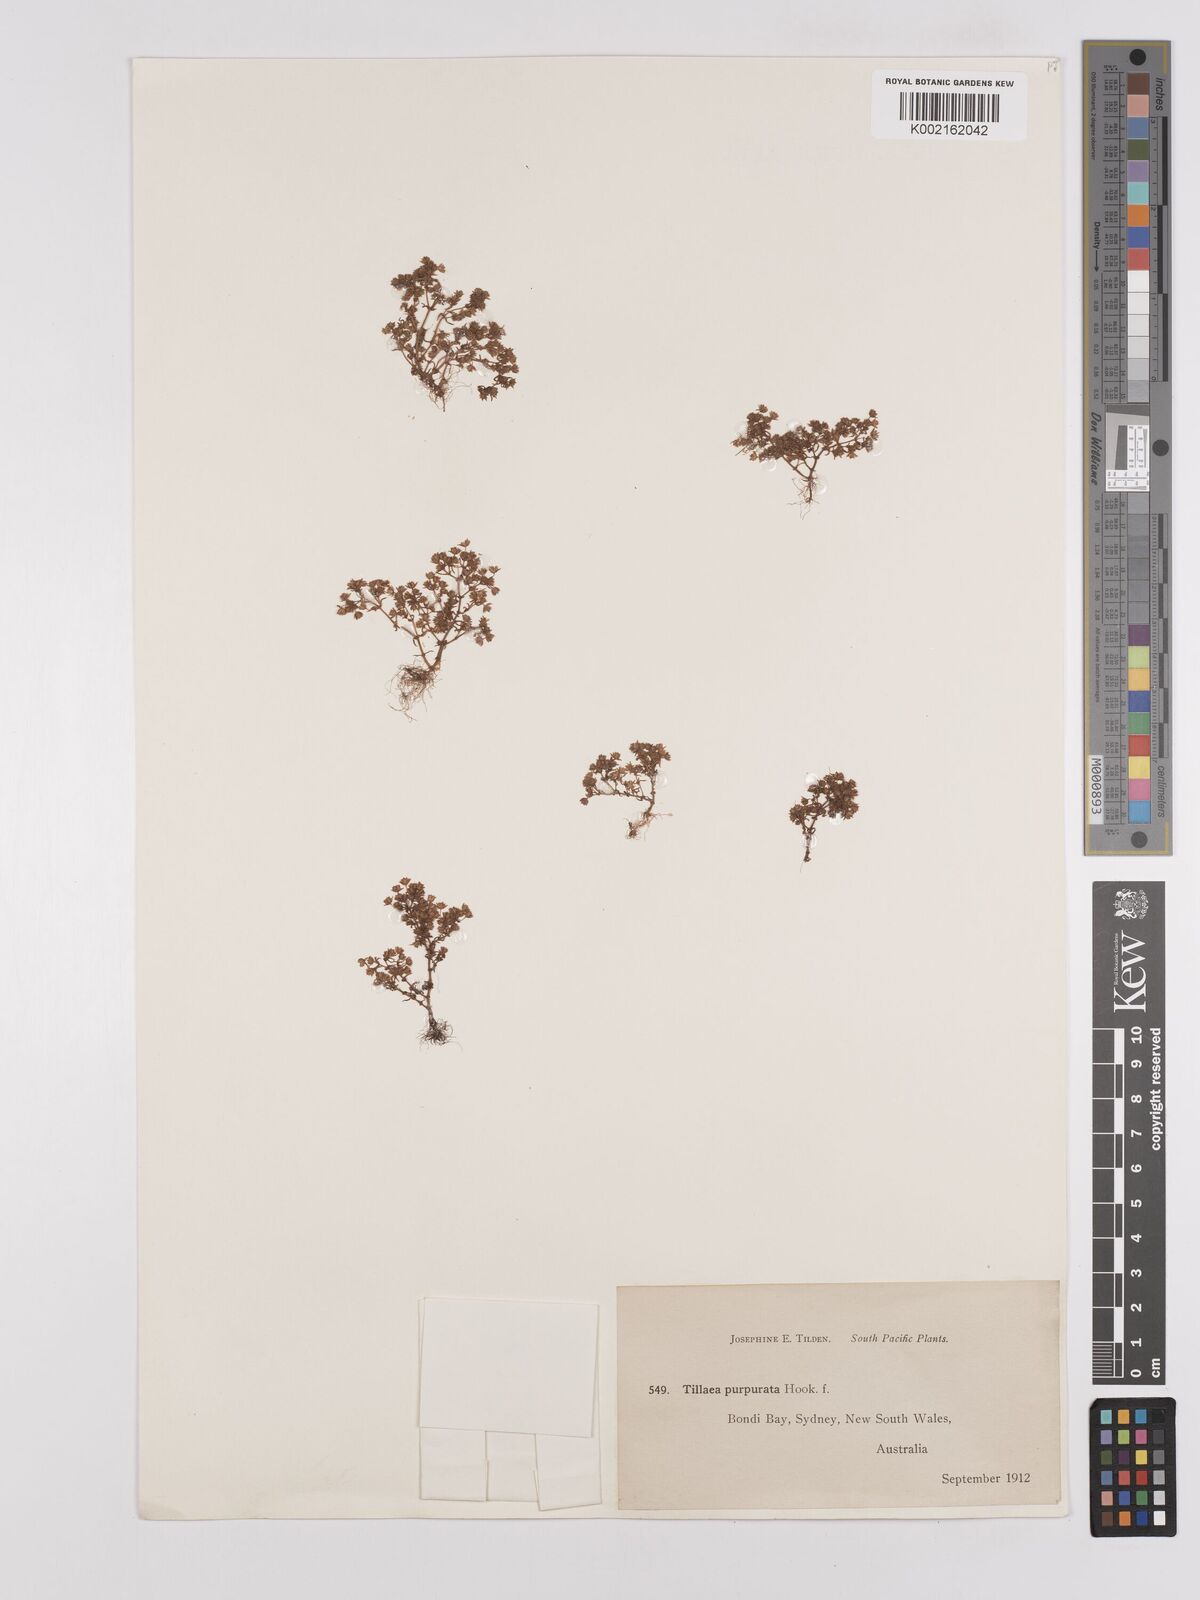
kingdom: Plantae
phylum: Tracheophyta
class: Magnoliopsida
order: Saxifragales
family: Crassulaceae
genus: Crassula
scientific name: Crassula peduncularis
